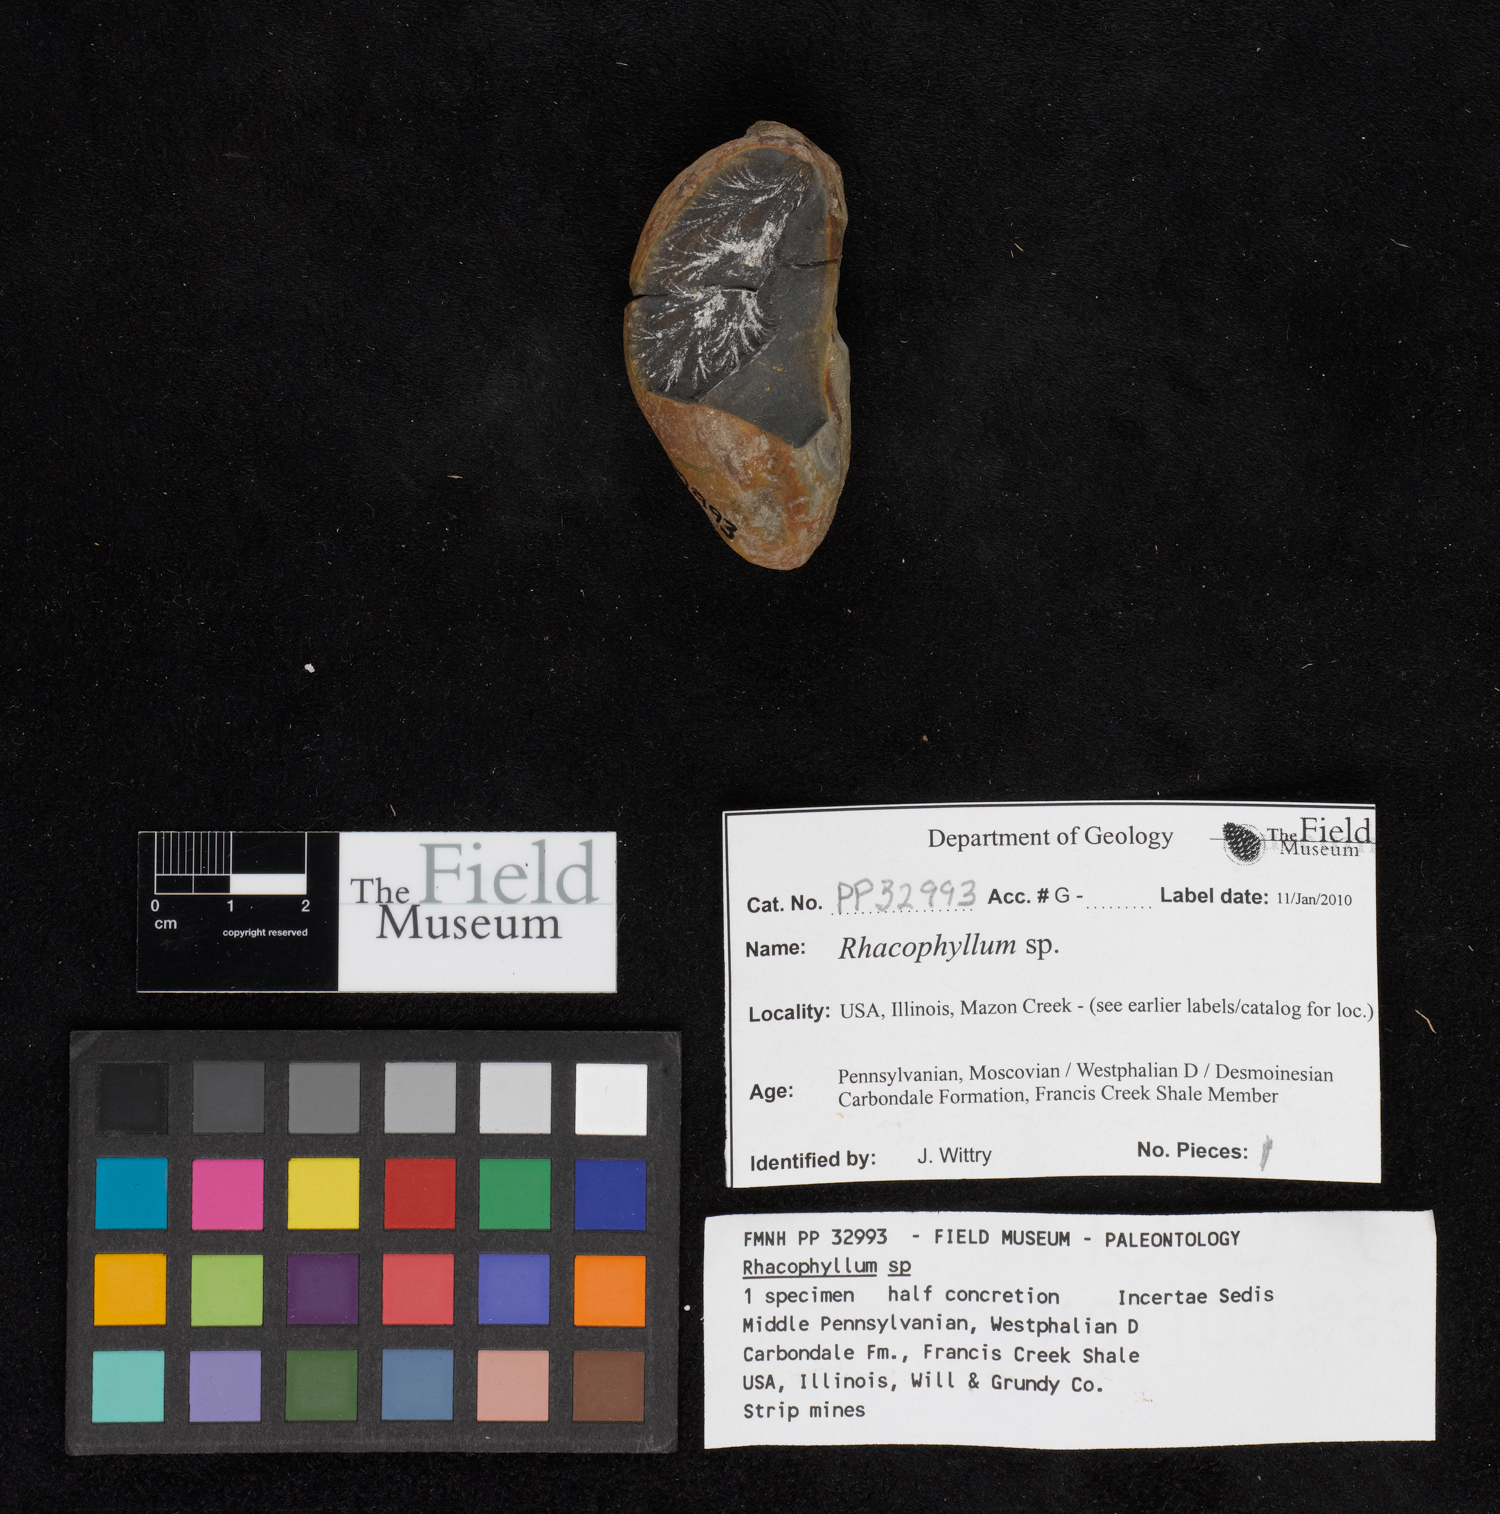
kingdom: Plantae
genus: Rhacophyllum
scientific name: Rhacophyllum
